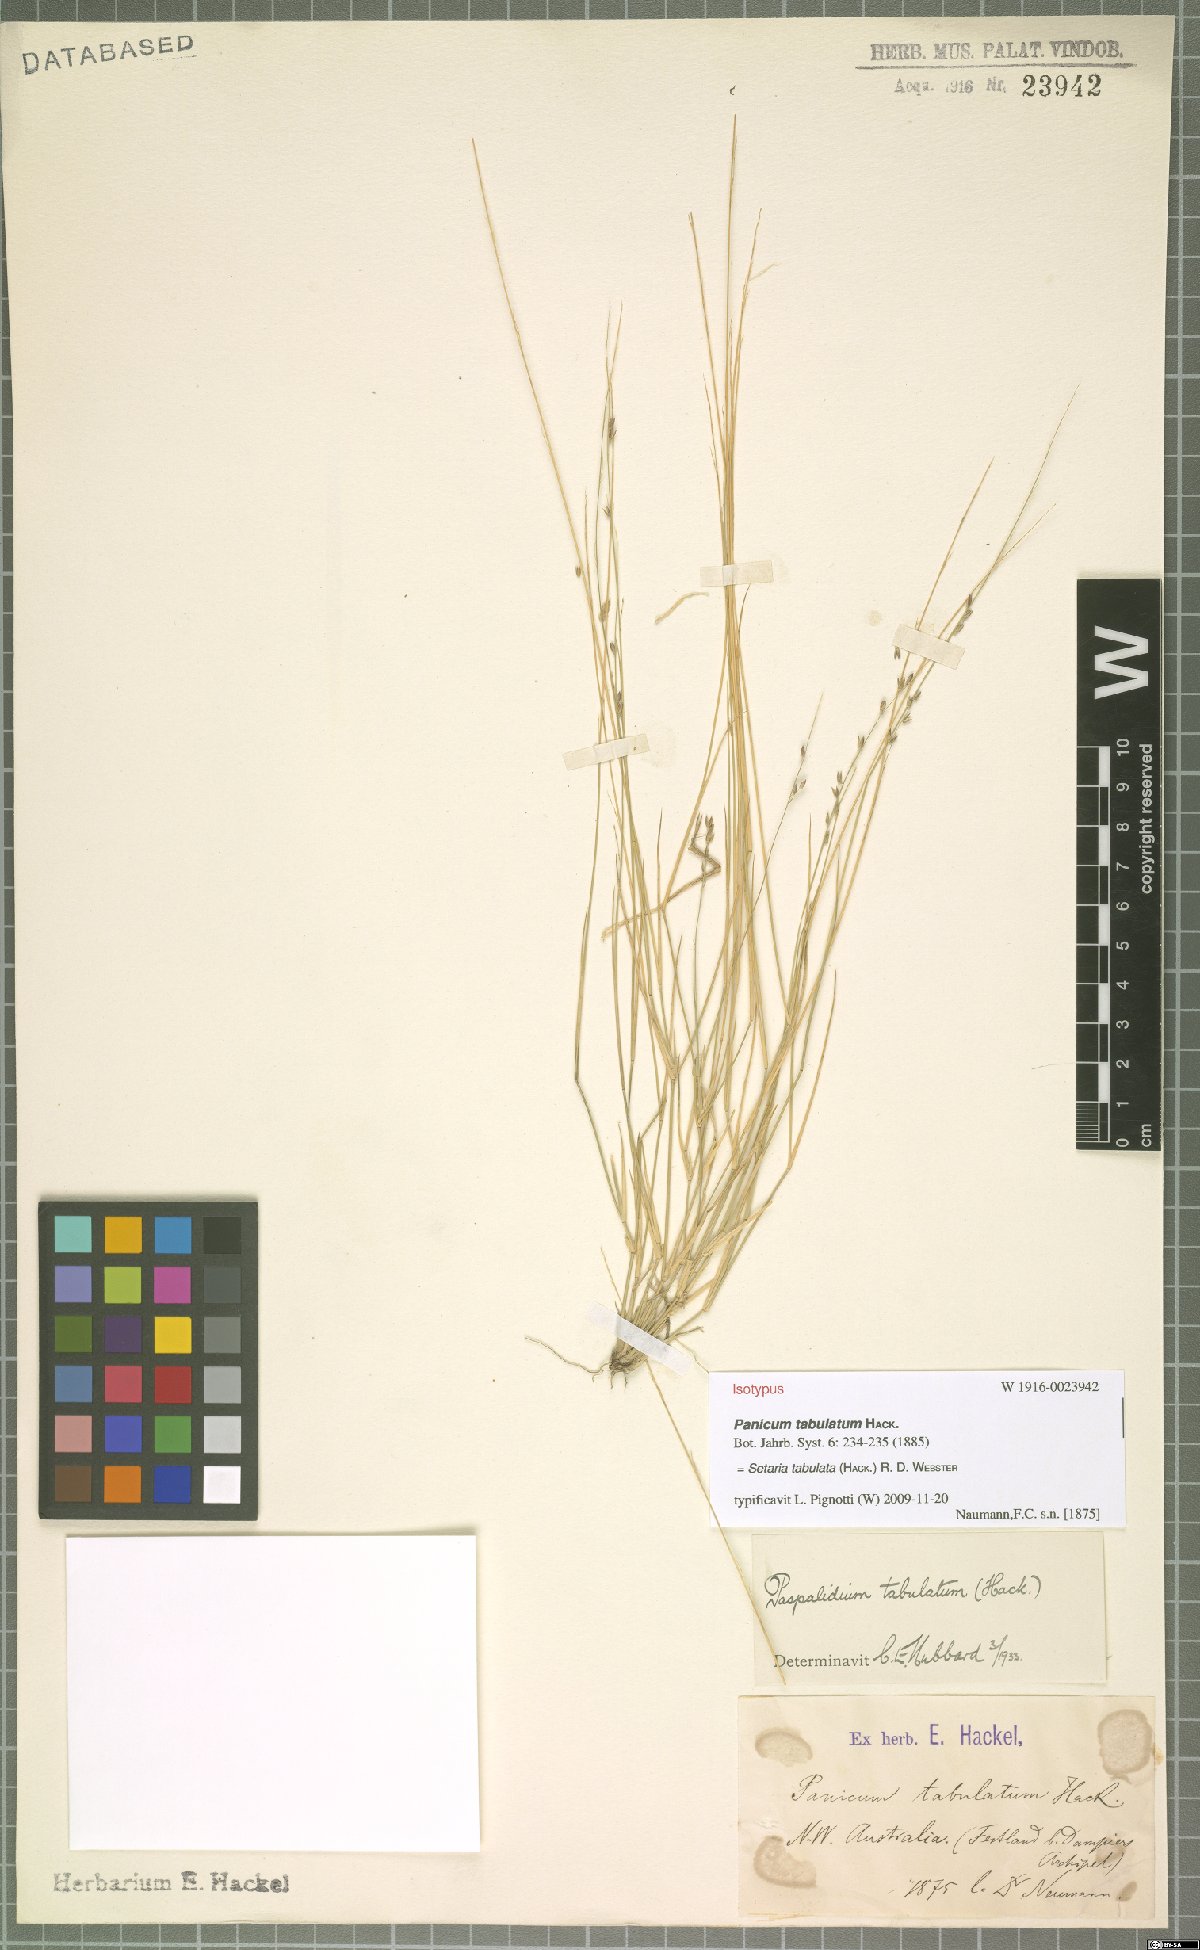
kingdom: Plantae
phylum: Tracheophyta
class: Liliopsida
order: Poales
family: Poaceae
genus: Setaria
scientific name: Setaria tabulata
